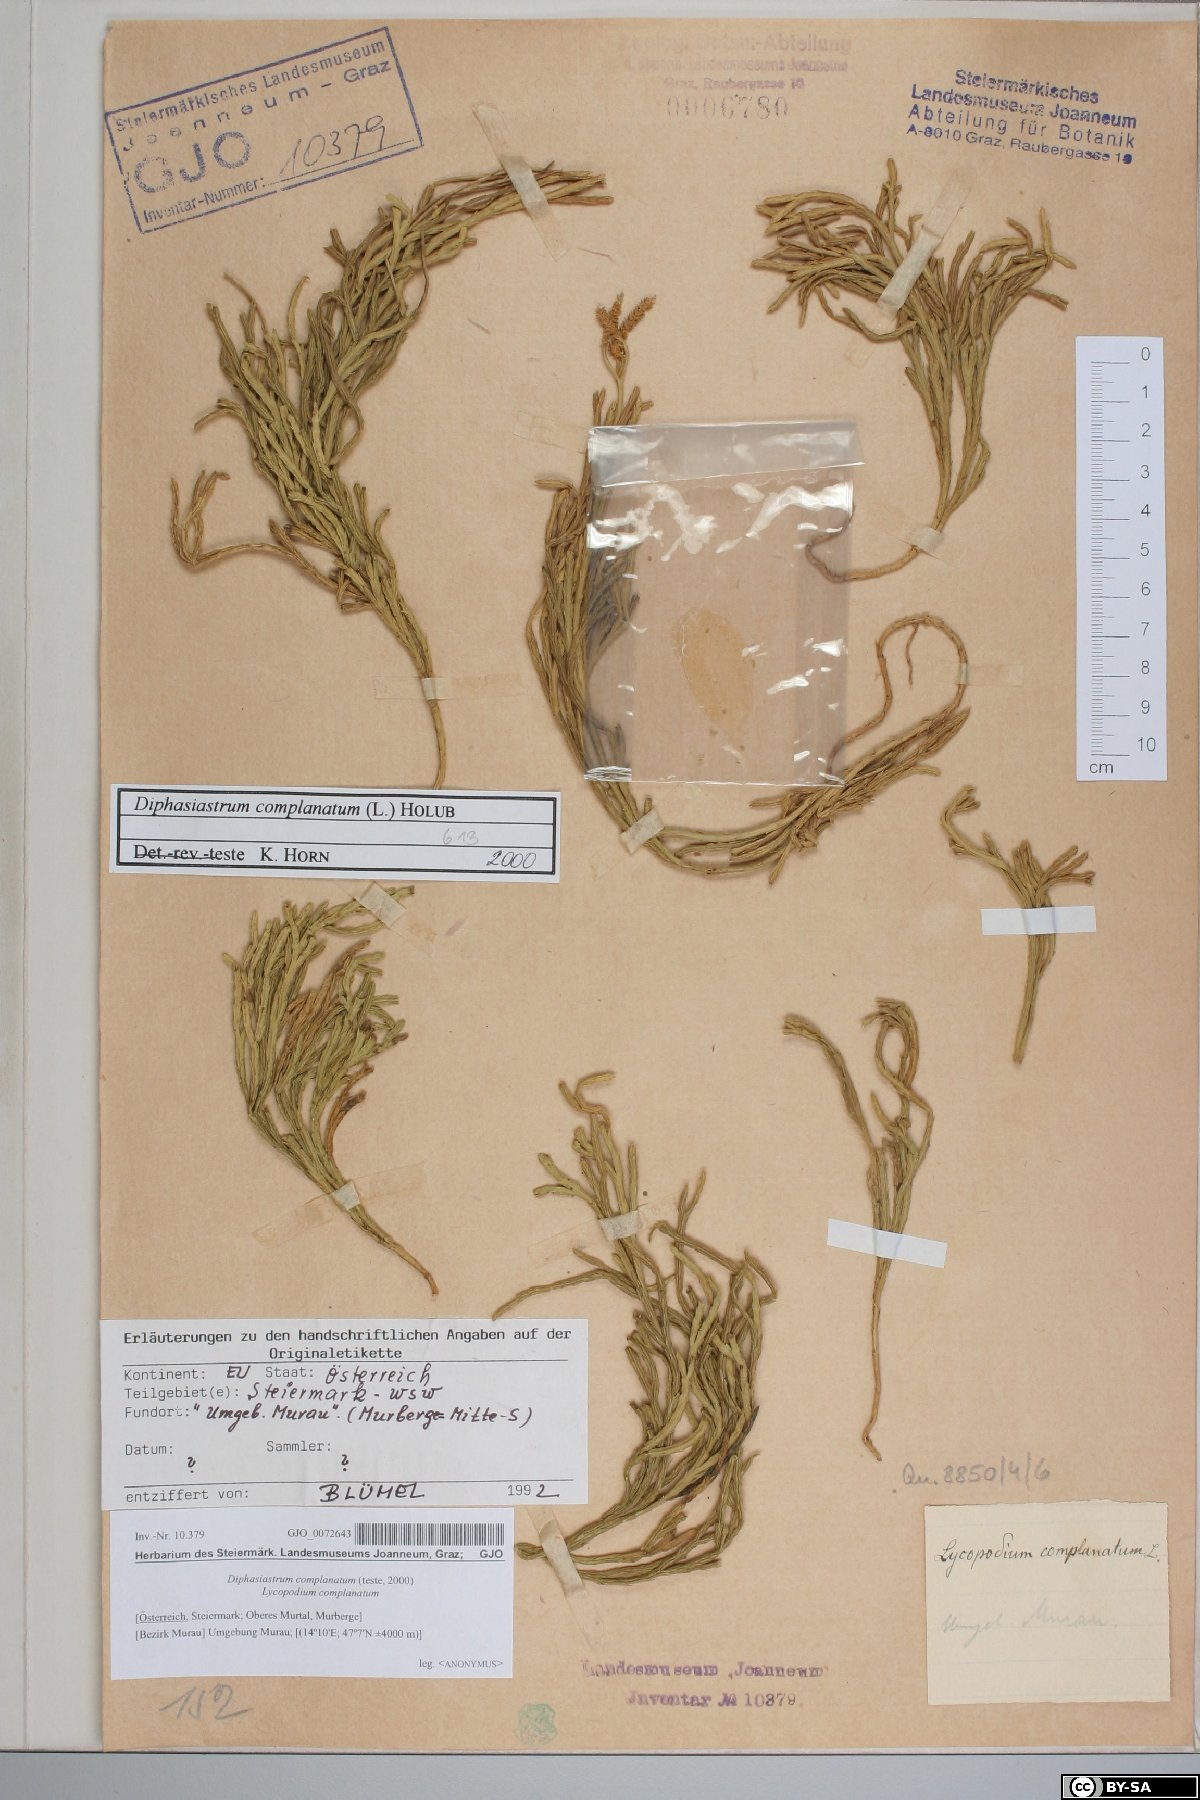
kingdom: Plantae
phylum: Tracheophyta
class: Lycopodiopsida
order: Lycopodiales
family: Lycopodiaceae
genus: Diphasiastrum
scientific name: Diphasiastrum complanatum
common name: Northern running-pine
